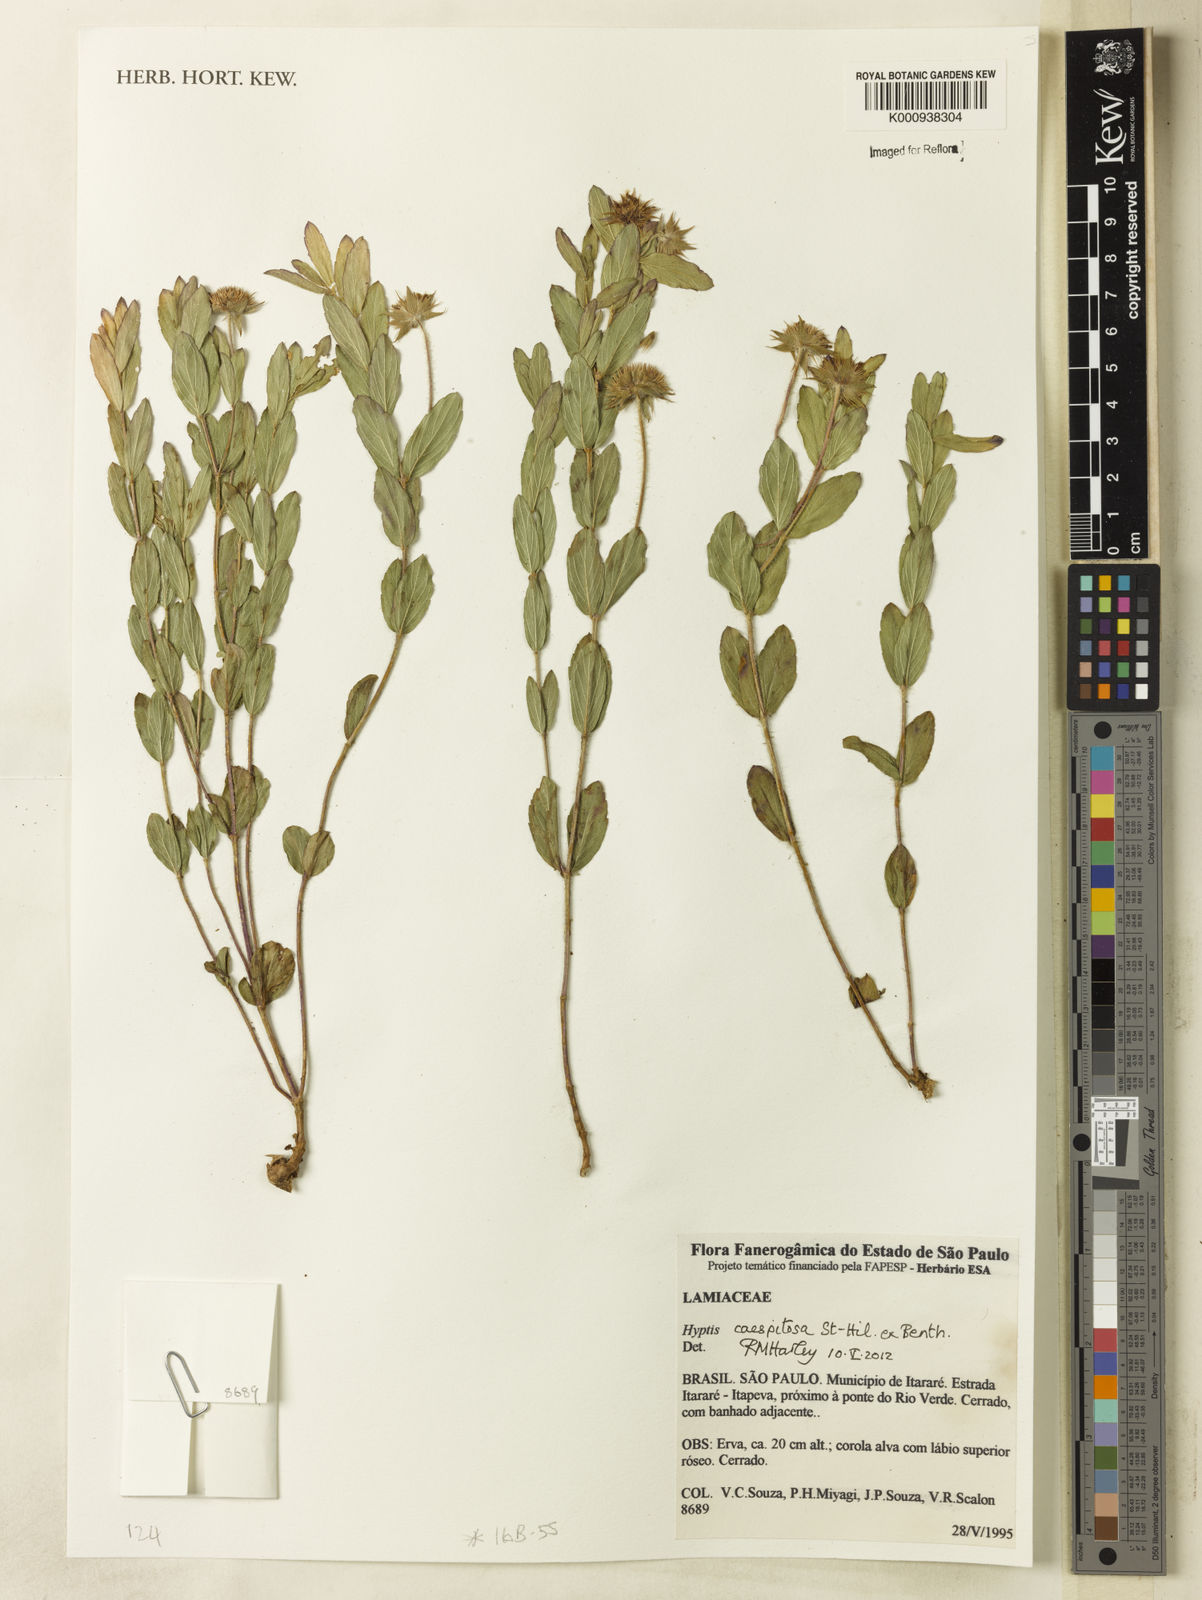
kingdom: Plantae
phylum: Tracheophyta
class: Magnoliopsida
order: Lamiales
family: Lamiaceae
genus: Hyptis
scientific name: Hyptis caespitosa
